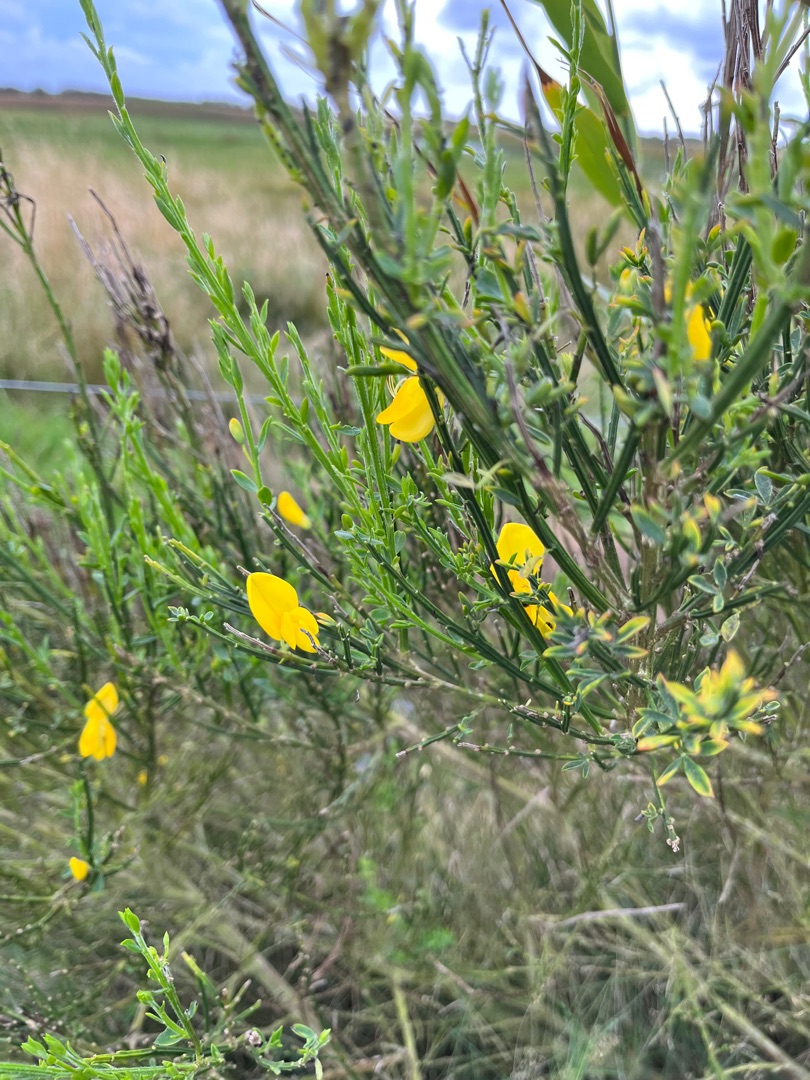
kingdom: Plantae
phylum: Tracheophyta
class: Magnoliopsida
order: Fabales
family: Fabaceae
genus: Cytisus
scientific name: Cytisus scoparius
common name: Almindelig gyvel
